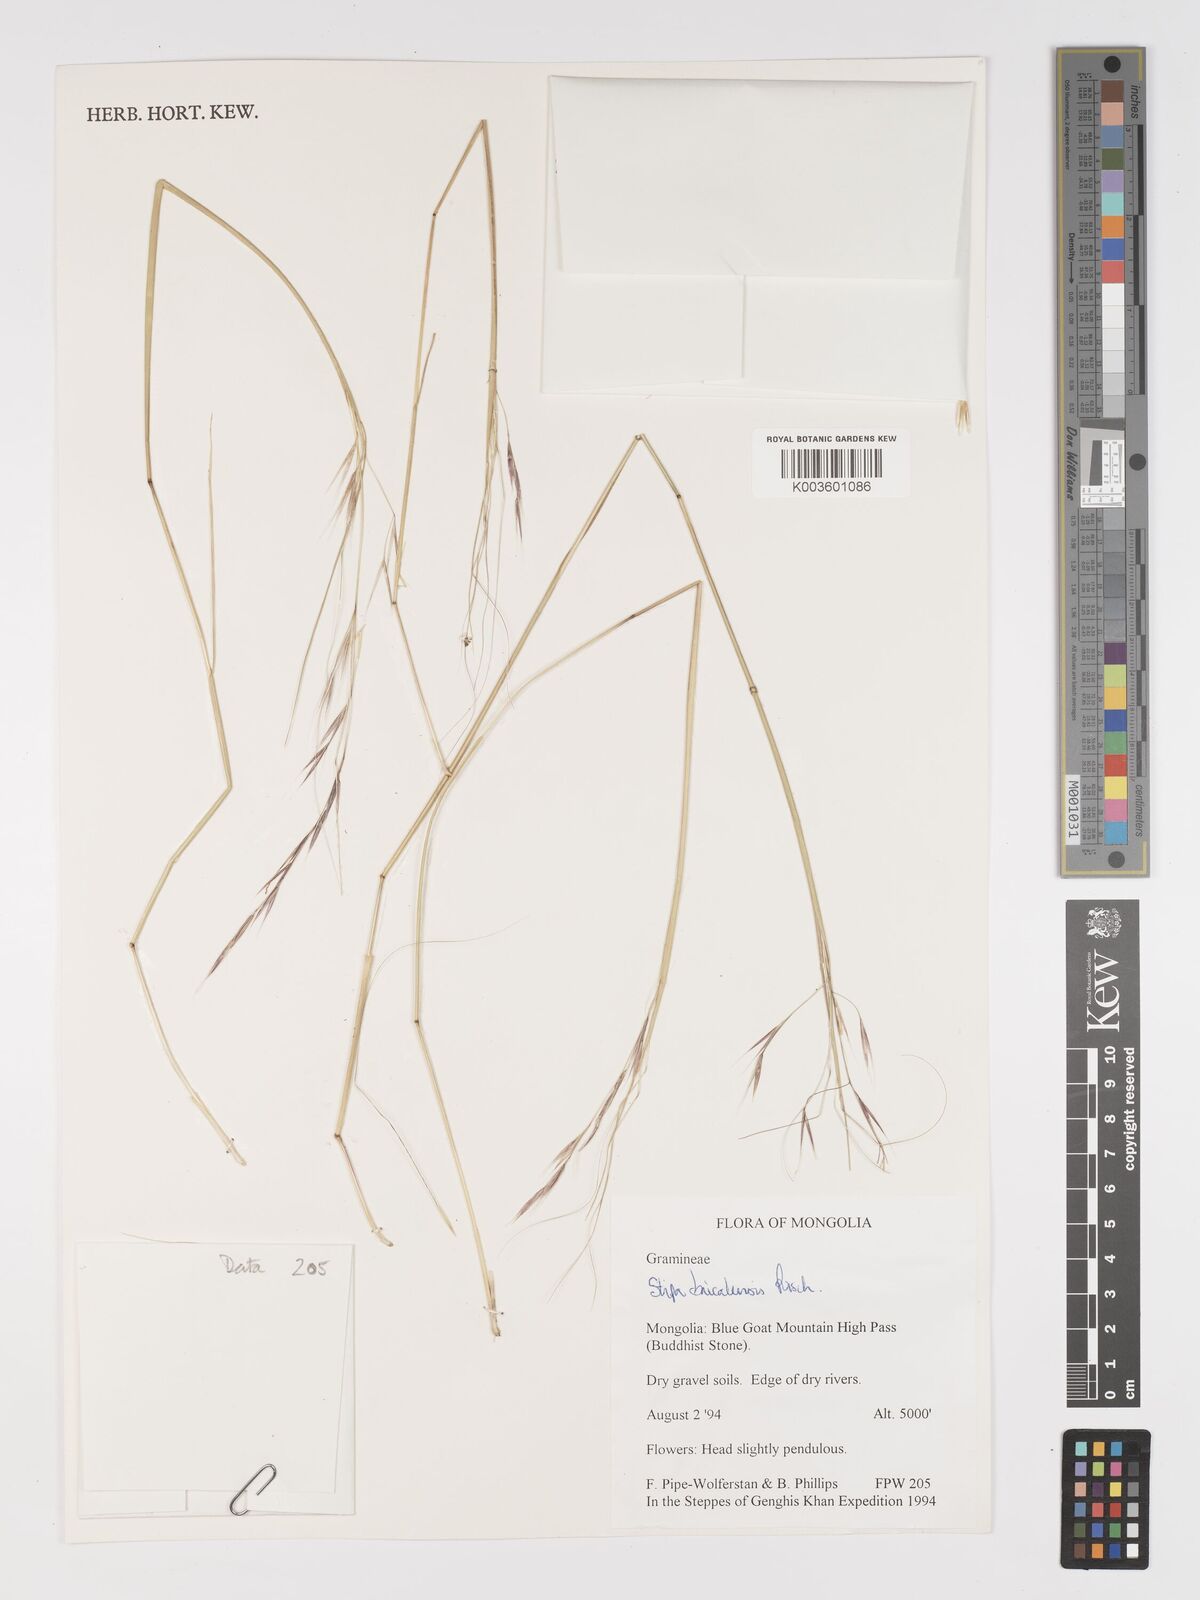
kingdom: Plantae
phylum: Tracheophyta
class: Liliopsida
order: Poales
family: Poaceae
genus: Stipa
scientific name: Stipa baicalensis
